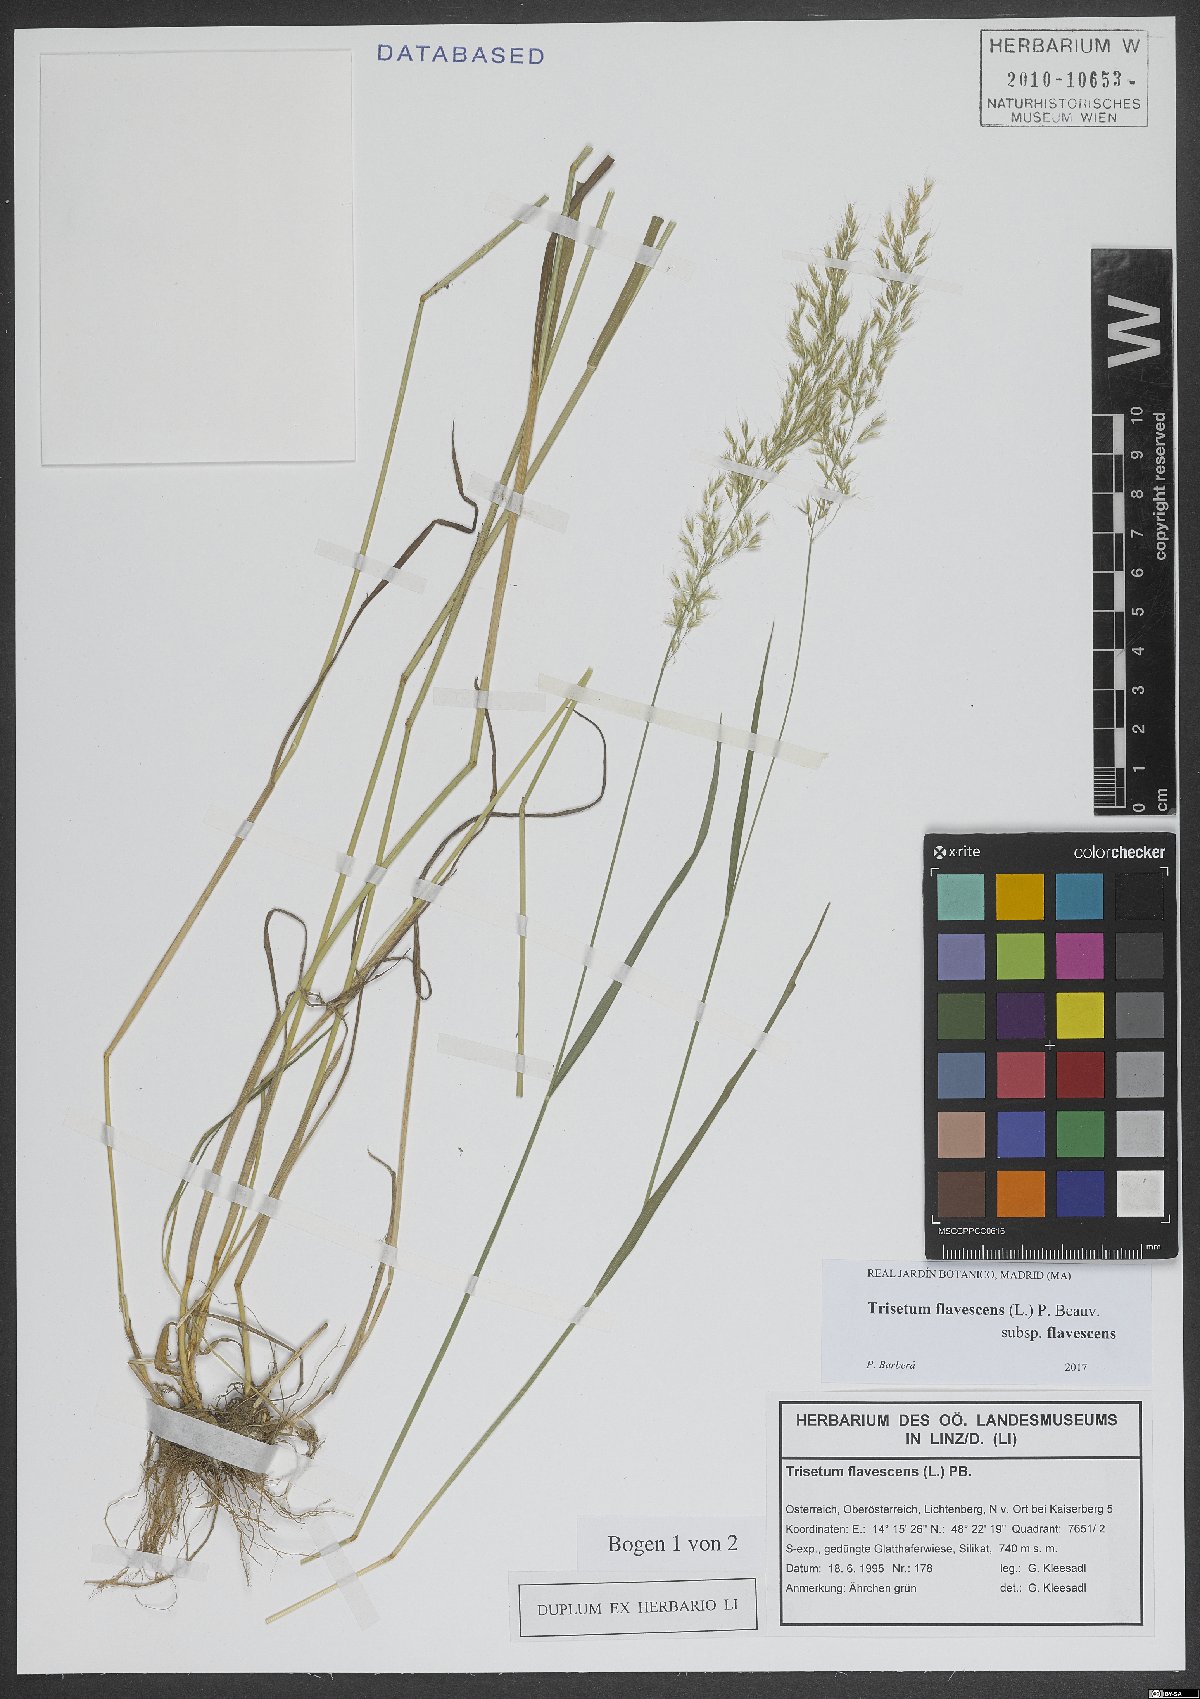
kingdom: Plantae
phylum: Tracheophyta
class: Liliopsida
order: Poales
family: Poaceae
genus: Trisetum
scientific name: Trisetum flavescens
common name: Yellow oat-grass
